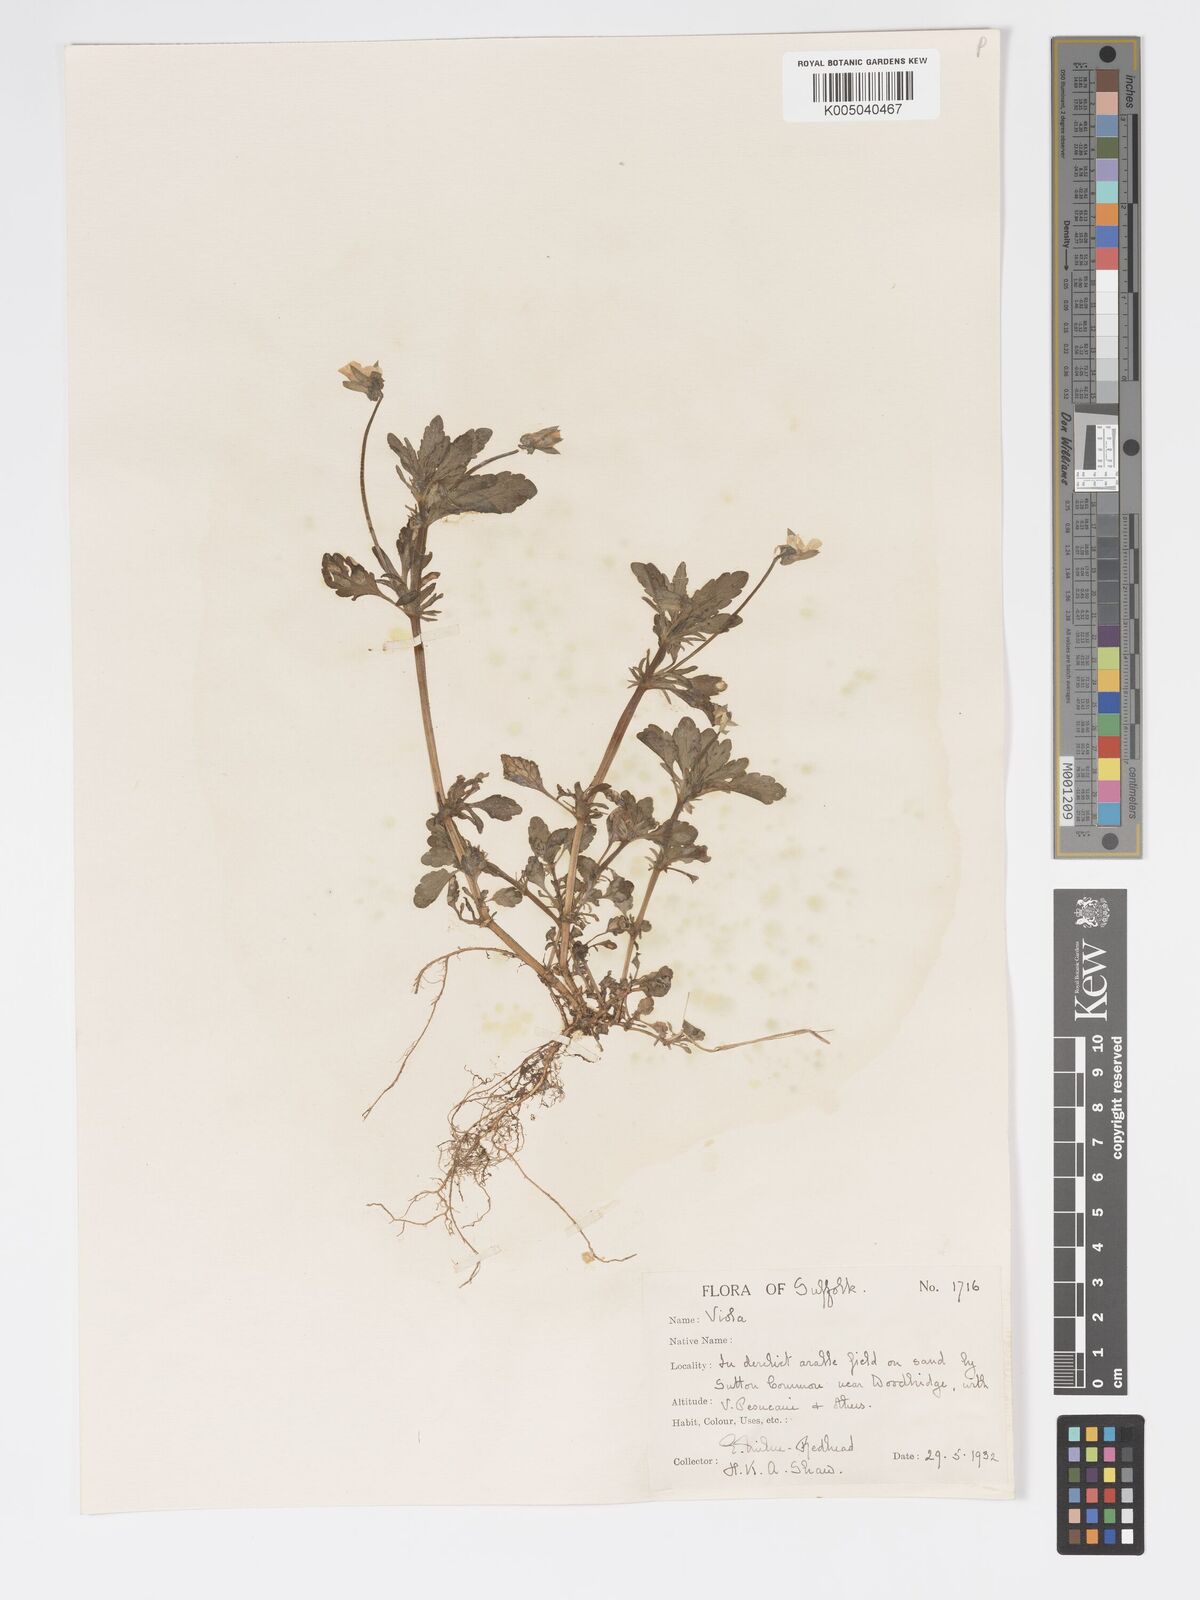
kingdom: Plantae
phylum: Tracheophyta
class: Magnoliopsida
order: Malpighiales
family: Violaceae
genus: Viola
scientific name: Viola arvensis
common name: Field pansy
